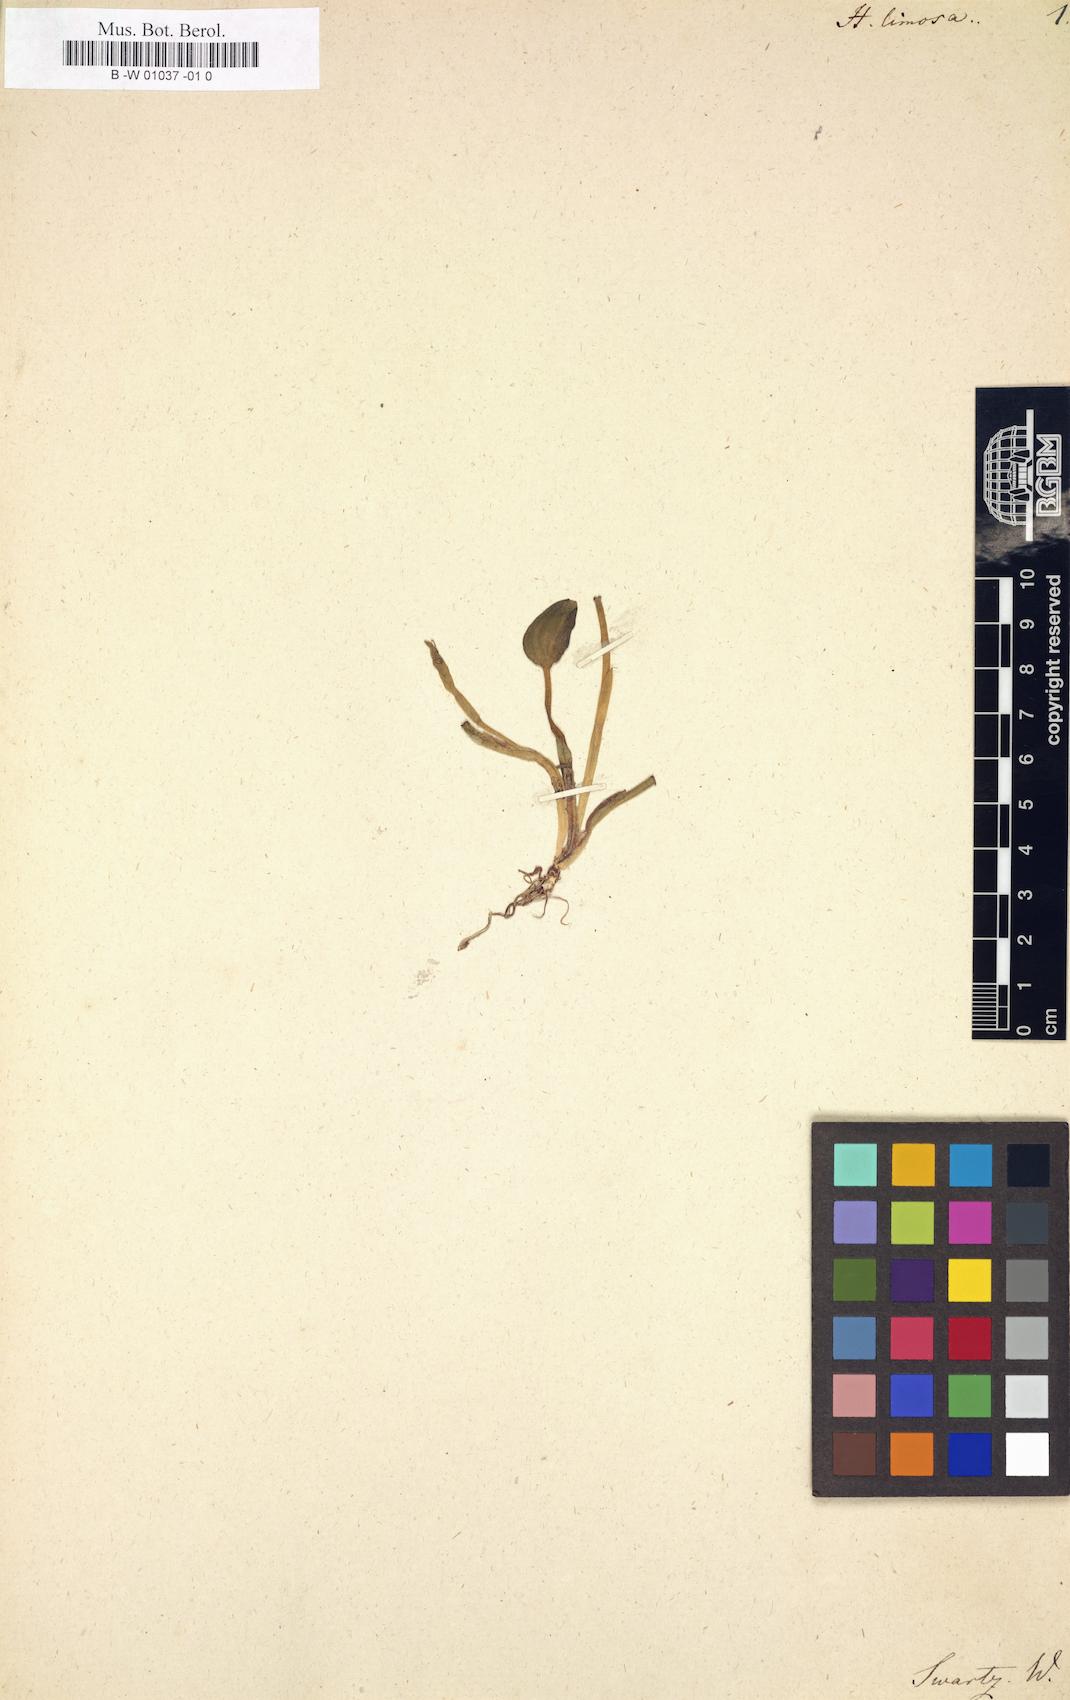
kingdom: Plantae
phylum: Tracheophyta
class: Liliopsida
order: Commelinales
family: Pontederiaceae
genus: Heteranthera
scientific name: Heteranthera limosa
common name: Blue mud-plantain
